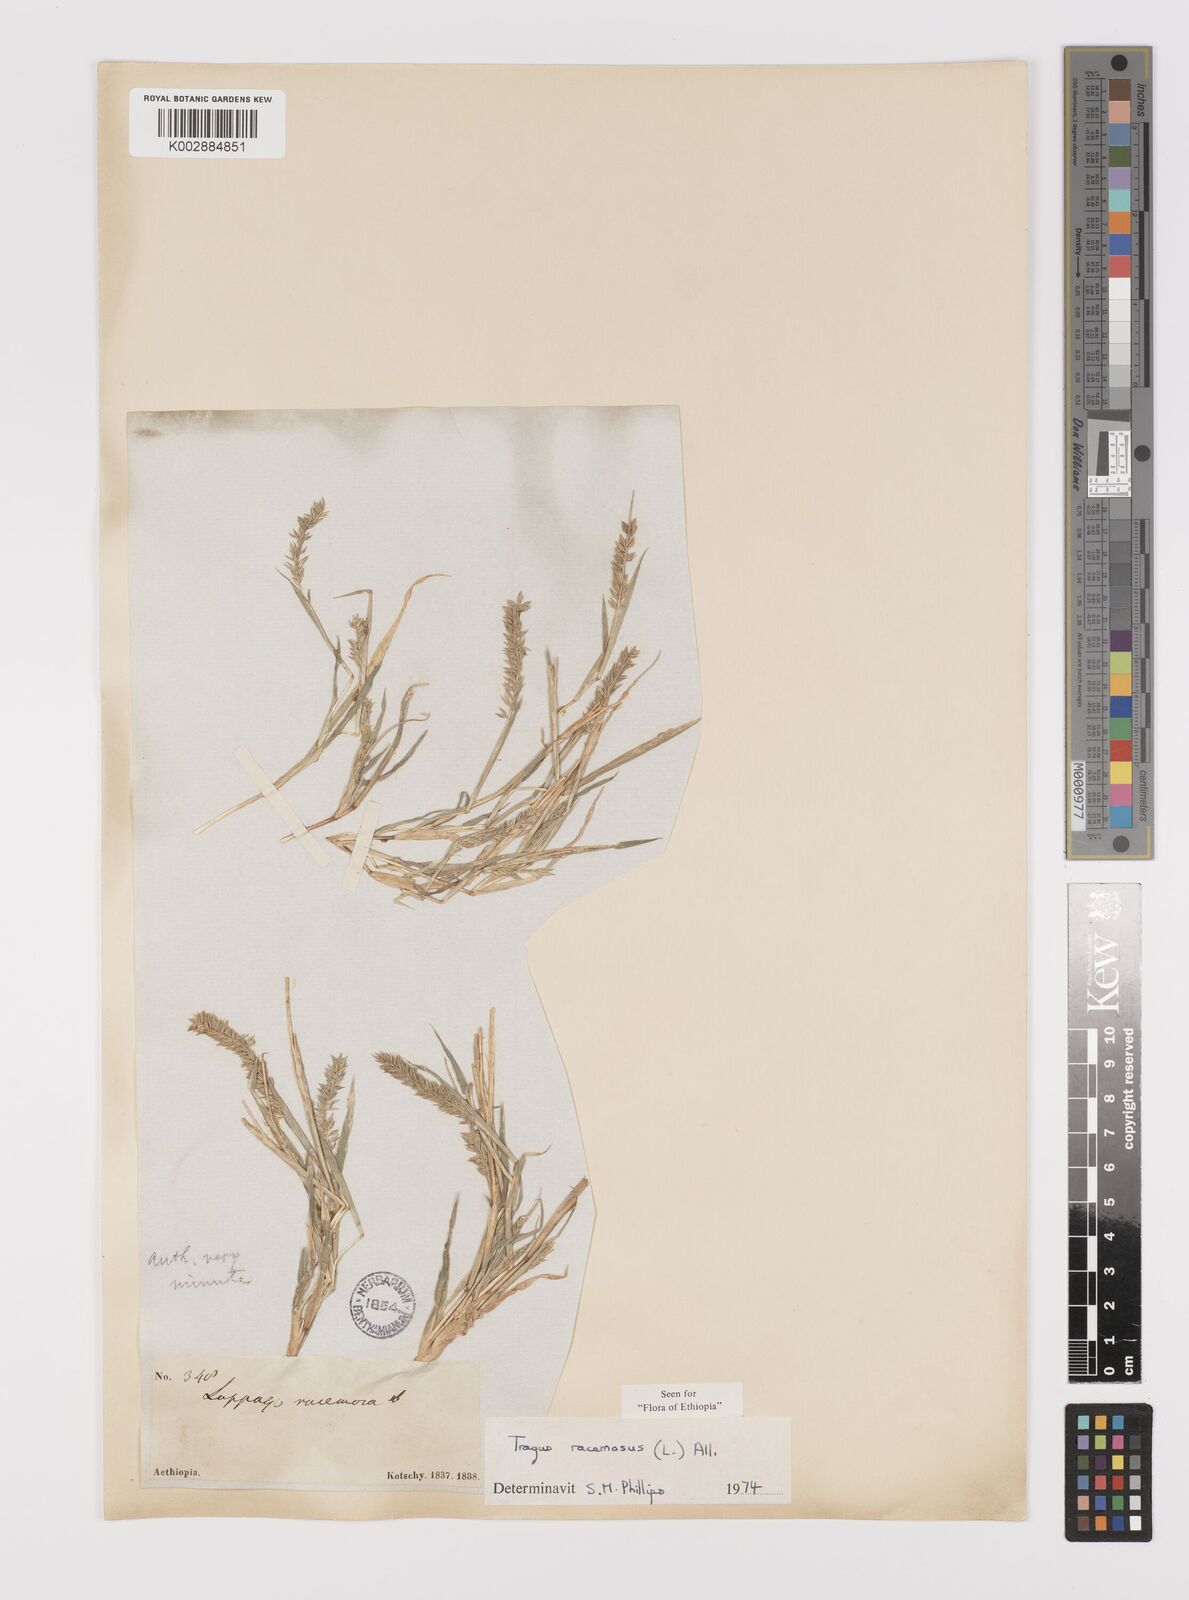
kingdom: Plantae
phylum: Tracheophyta
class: Liliopsida
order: Poales
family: Poaceae
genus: Tragus
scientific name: Tragus racemosus
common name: European bur-grass
